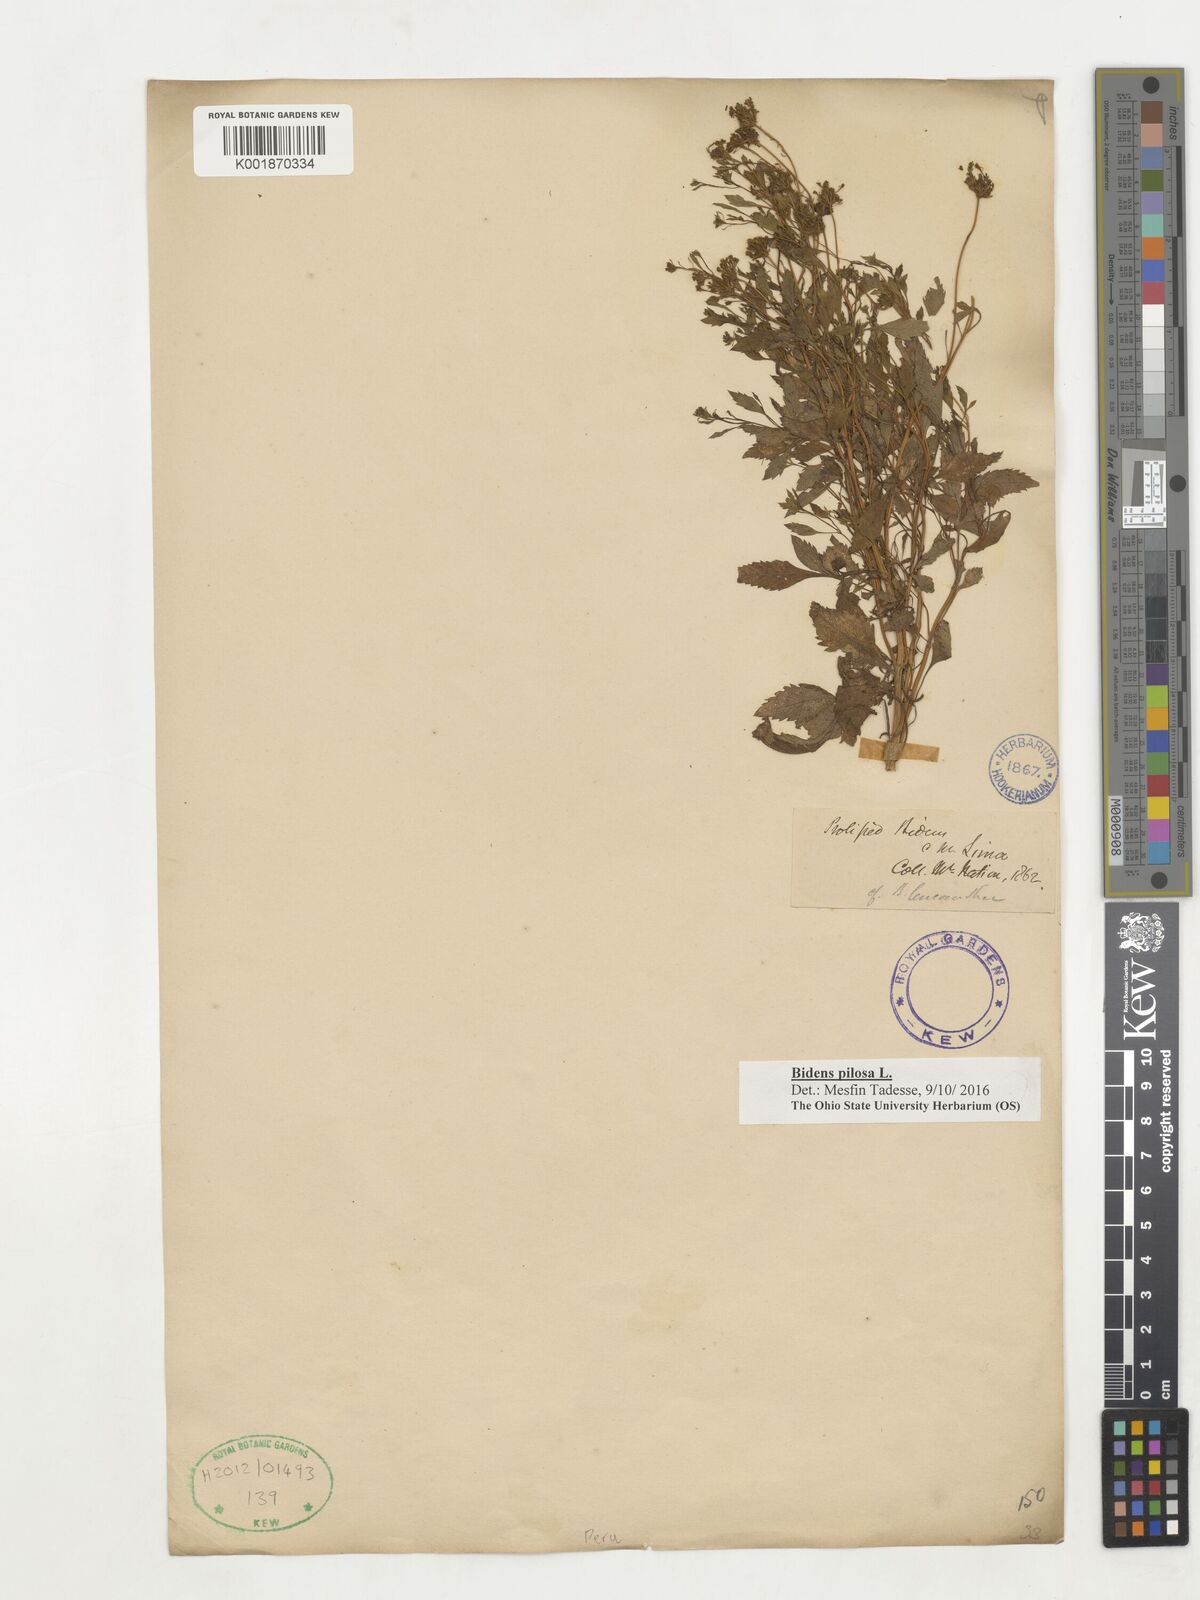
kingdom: Plantae
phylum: Tracheophyta
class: Magnoliopsida
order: Asterales
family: Asteraceae
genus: Bidens
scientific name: Bidens pilosa
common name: Black-jack
